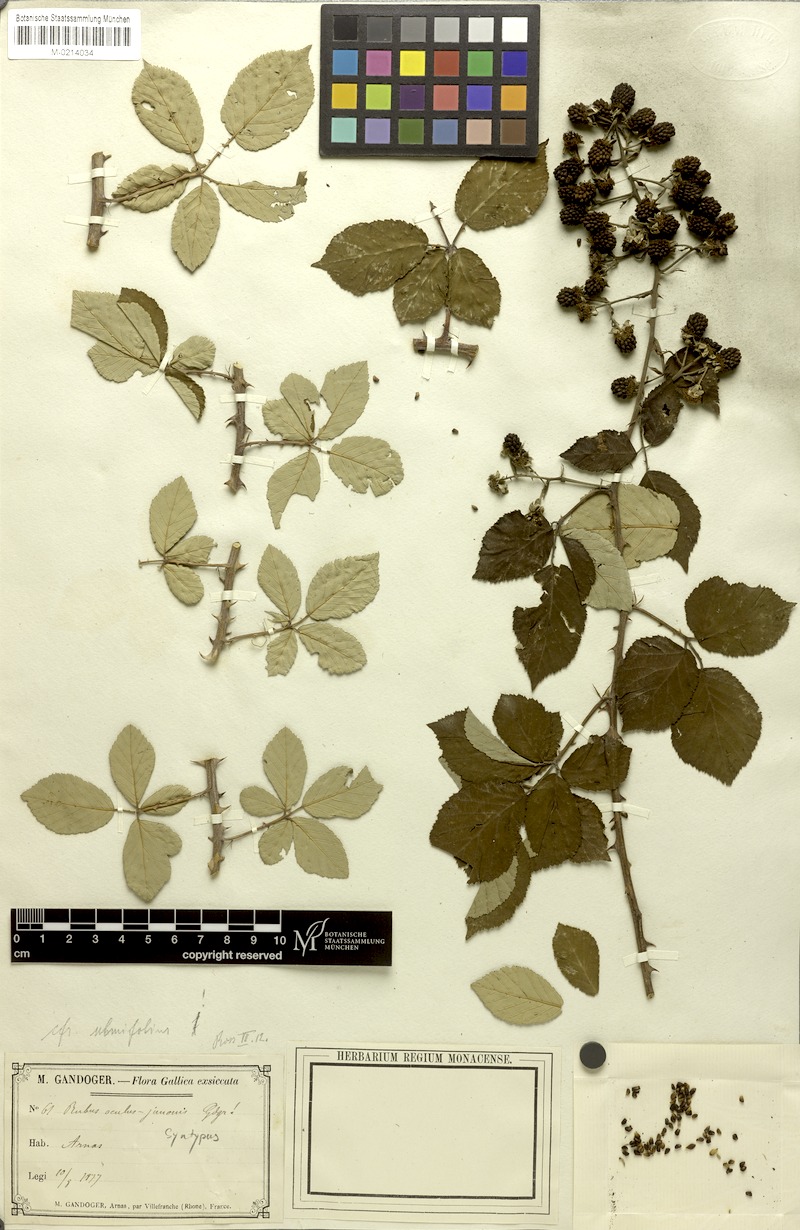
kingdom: Plantae
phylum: Tracheophyta
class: Magnoliopsida
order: Rosales
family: Rosaceae
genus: Rubus
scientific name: Rubus ulmifolius
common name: Elmleaf blackberry
